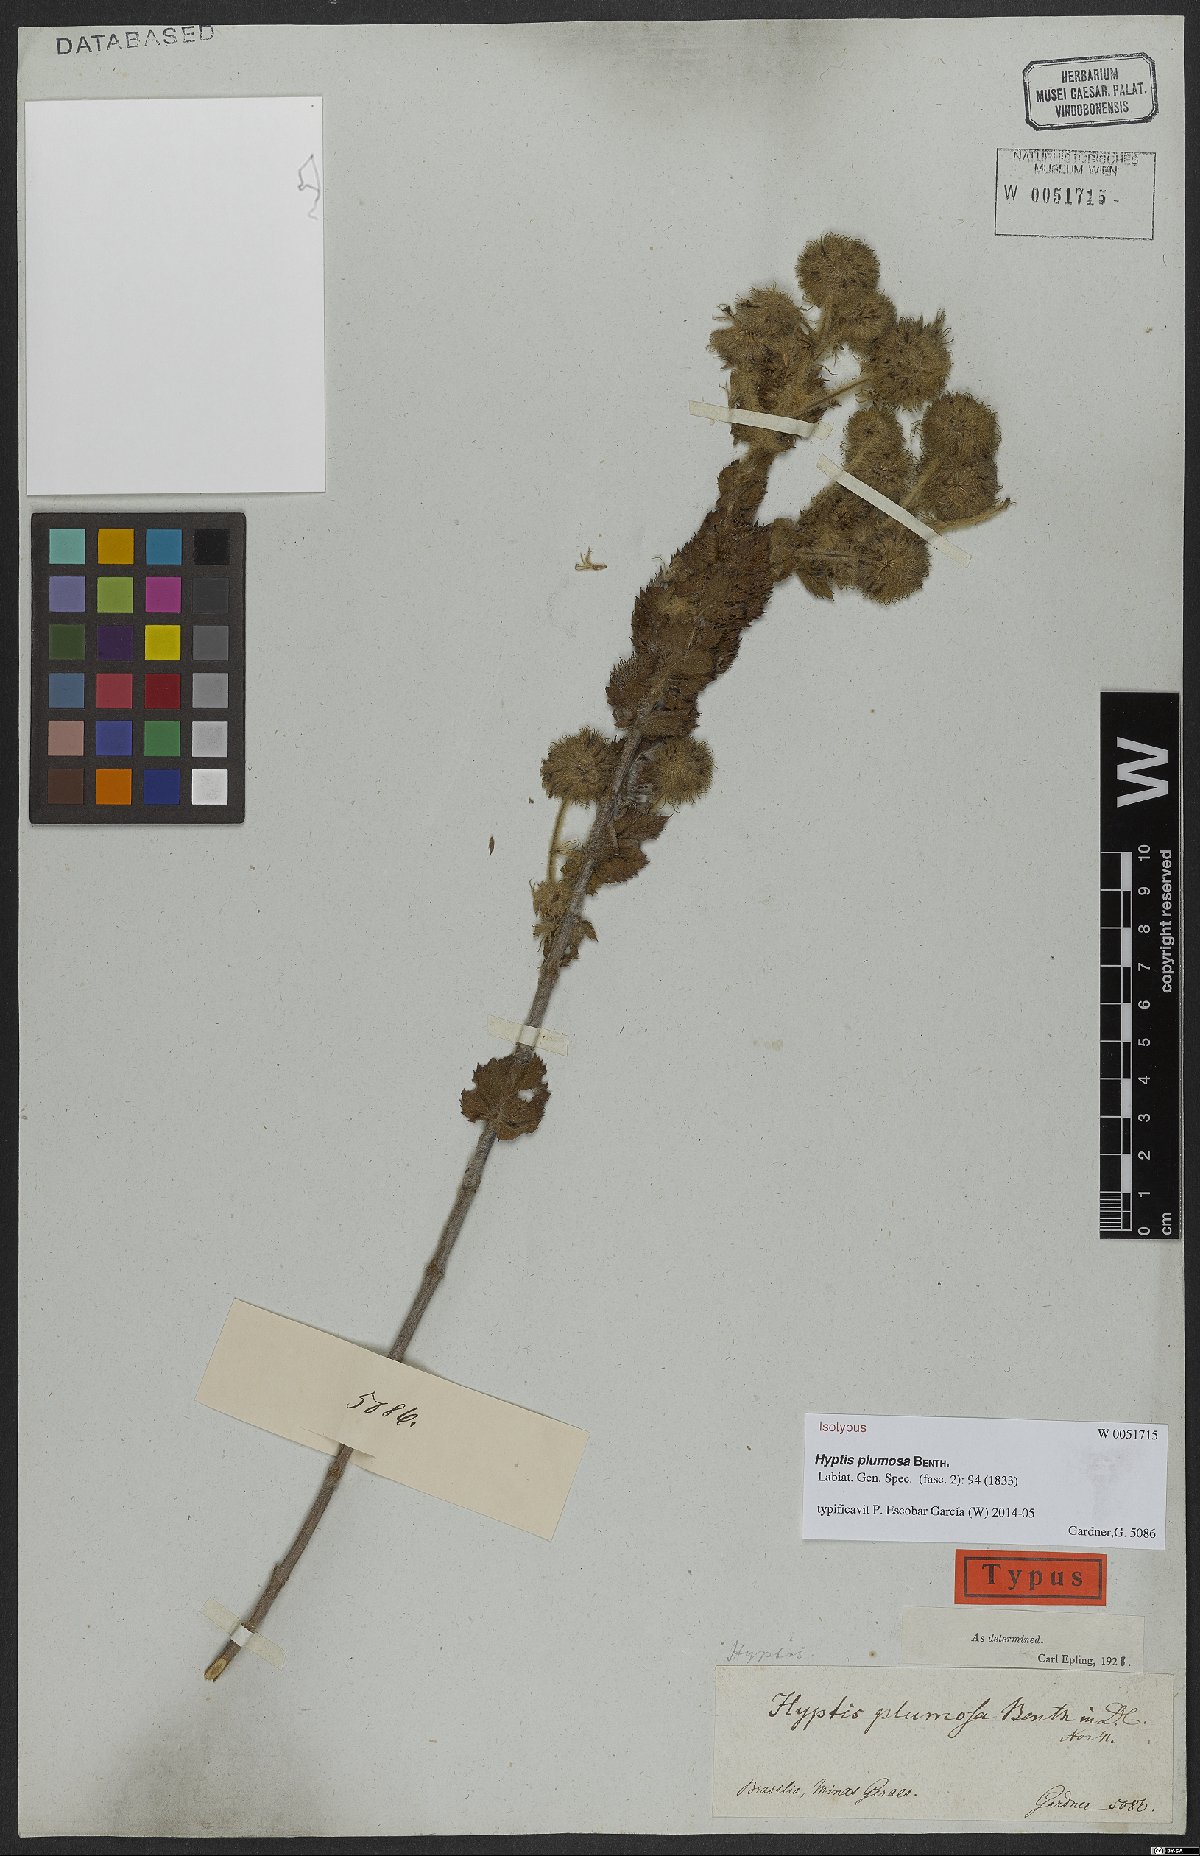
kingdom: Plantae
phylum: Tracheophyta
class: Magnoliopsida
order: Lamiales
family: Lamiaceae
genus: Medusantha
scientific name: Medusantha plumosa
